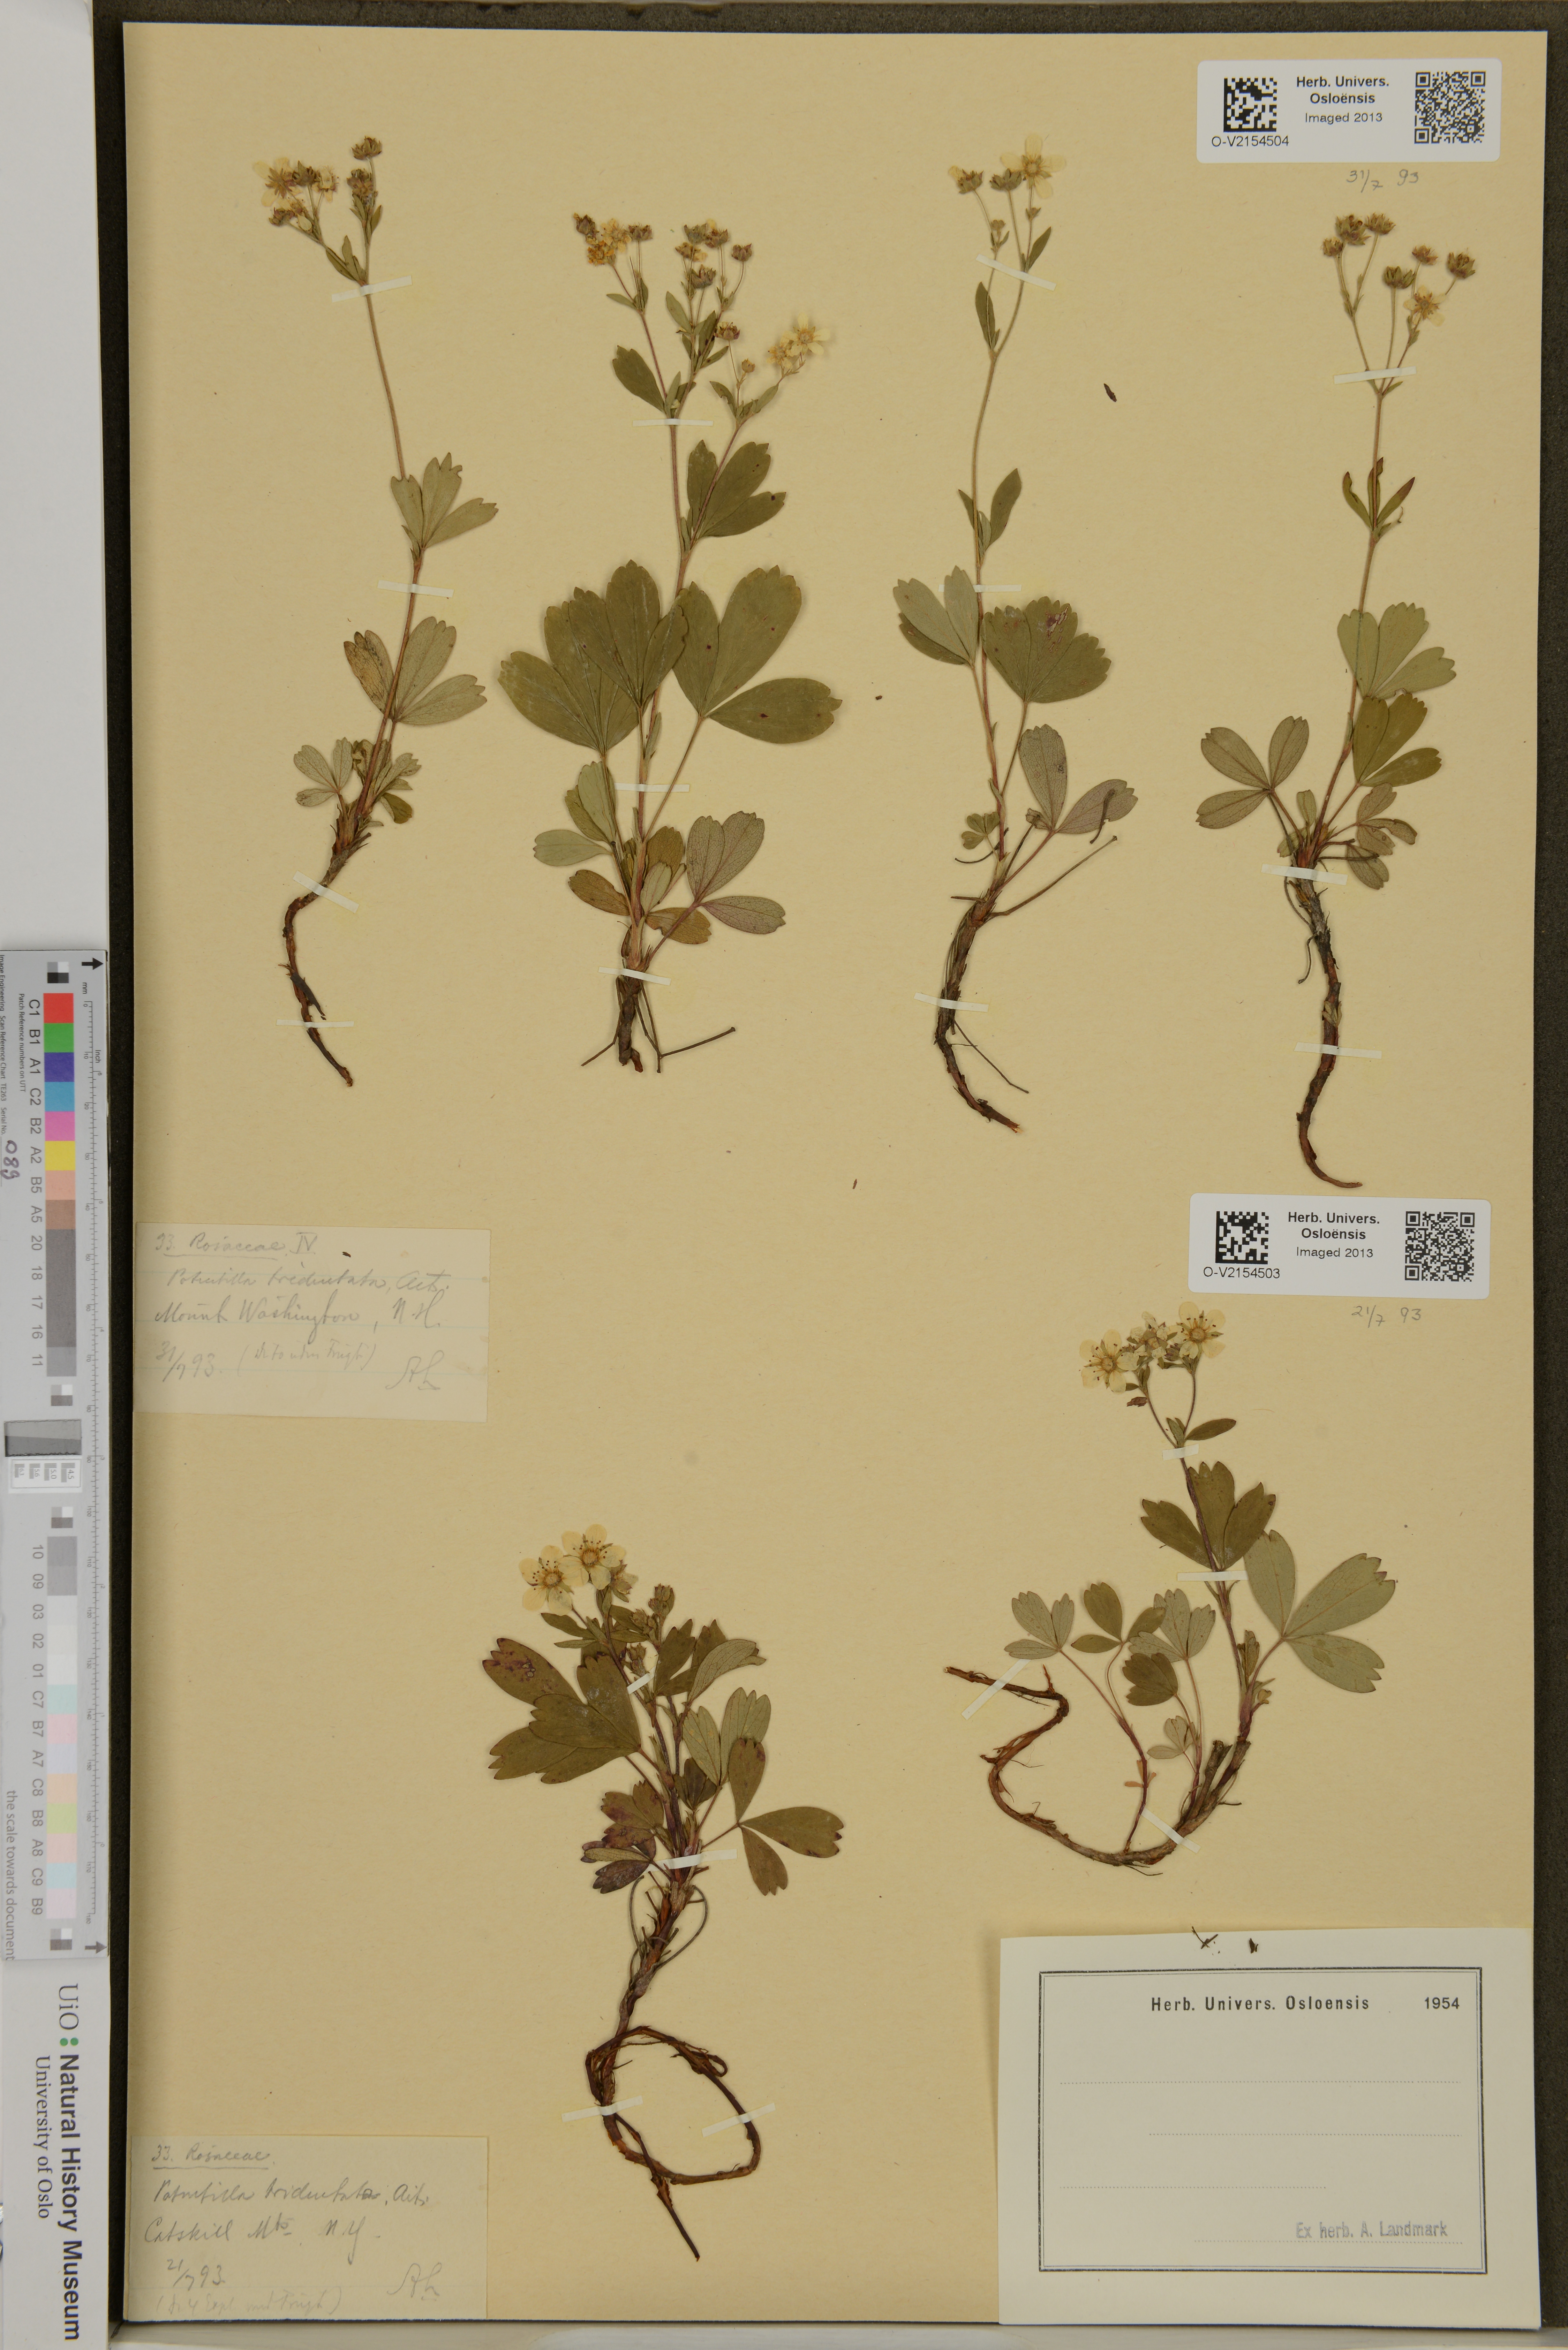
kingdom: Plantae
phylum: Tracheophyta
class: Magnoliopsida
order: Rosales
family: Rosaceae
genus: Sibbaldia
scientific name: Sibbaldia tridentata
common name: Three-toothed cinquefoil
